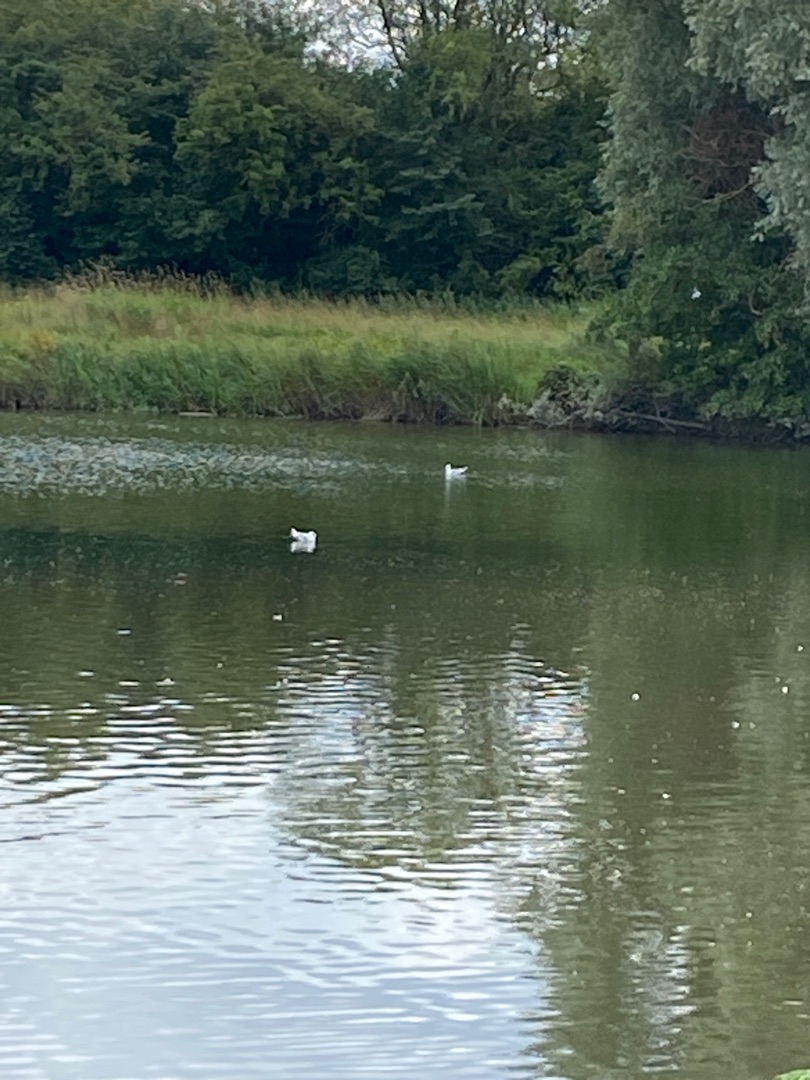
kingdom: Animalia
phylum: Chordata
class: Aves
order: Charadriiformes
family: Laridae
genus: Chroicocephalus
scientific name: Chroicocephalus ridibundus
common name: Hættemåge
